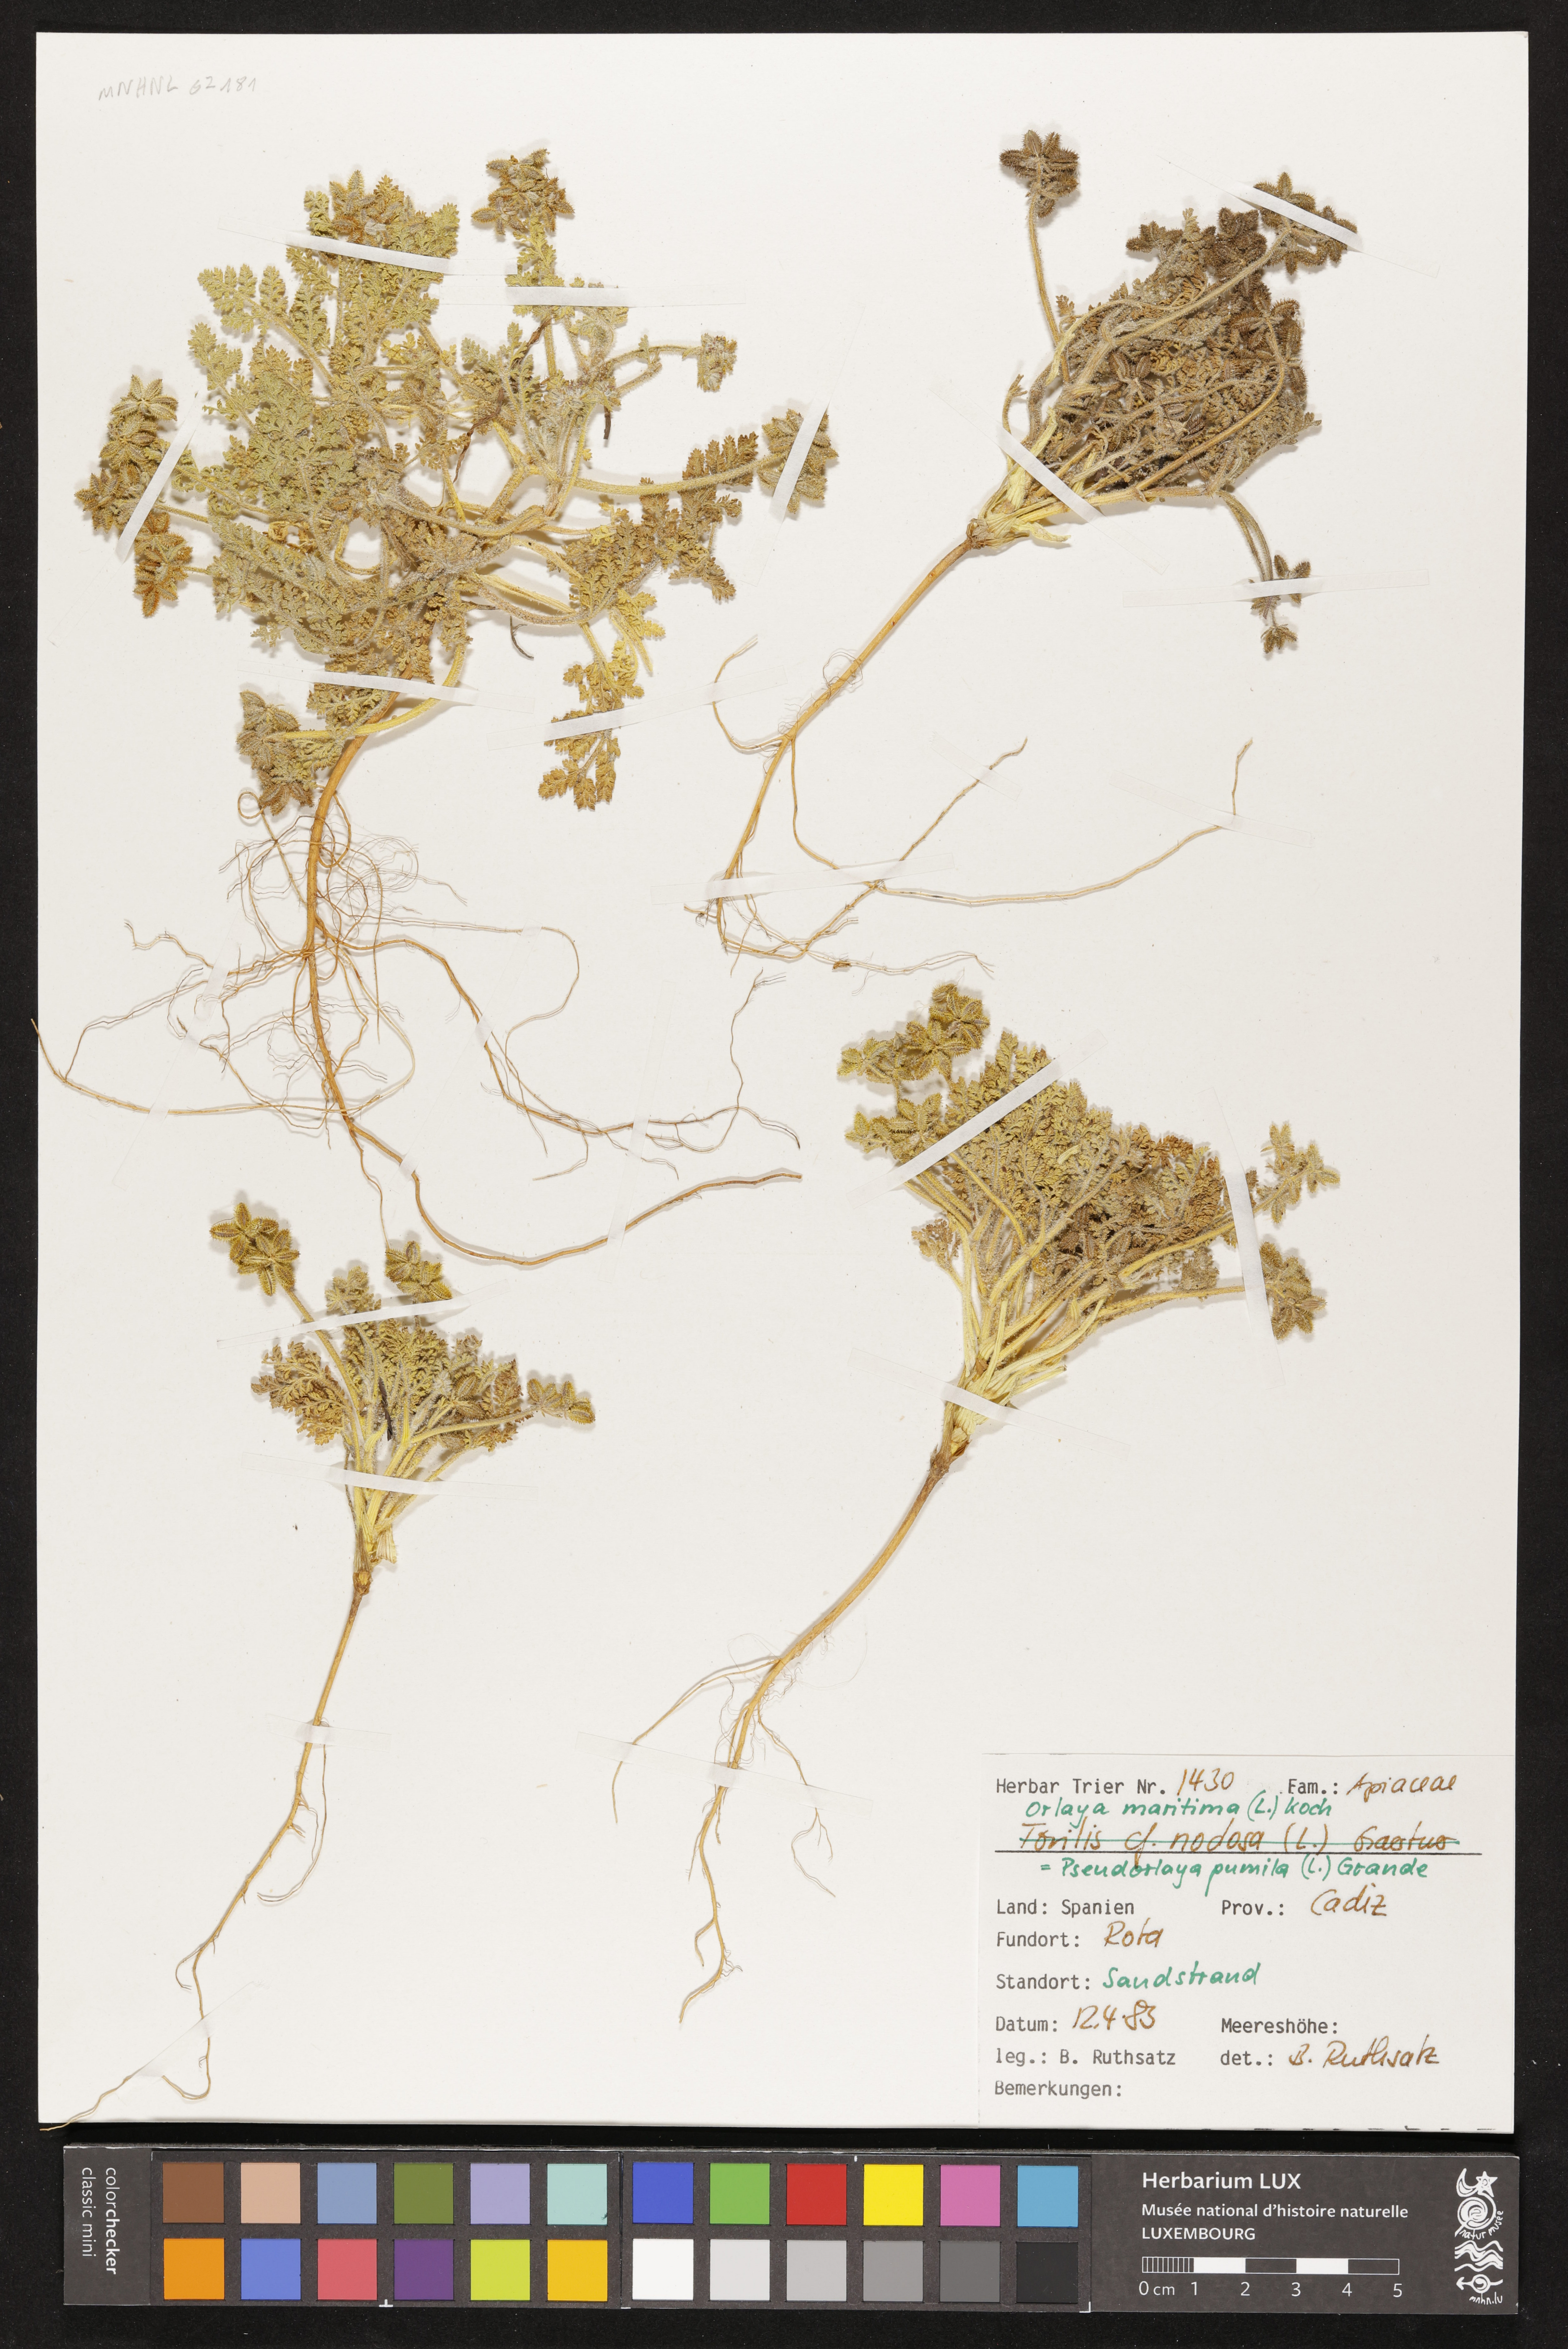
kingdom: Plantae
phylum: Tracheophyta
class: Magnoliopsida
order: Apiales
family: Apiaceae
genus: Daucus
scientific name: Daucus pumilus
